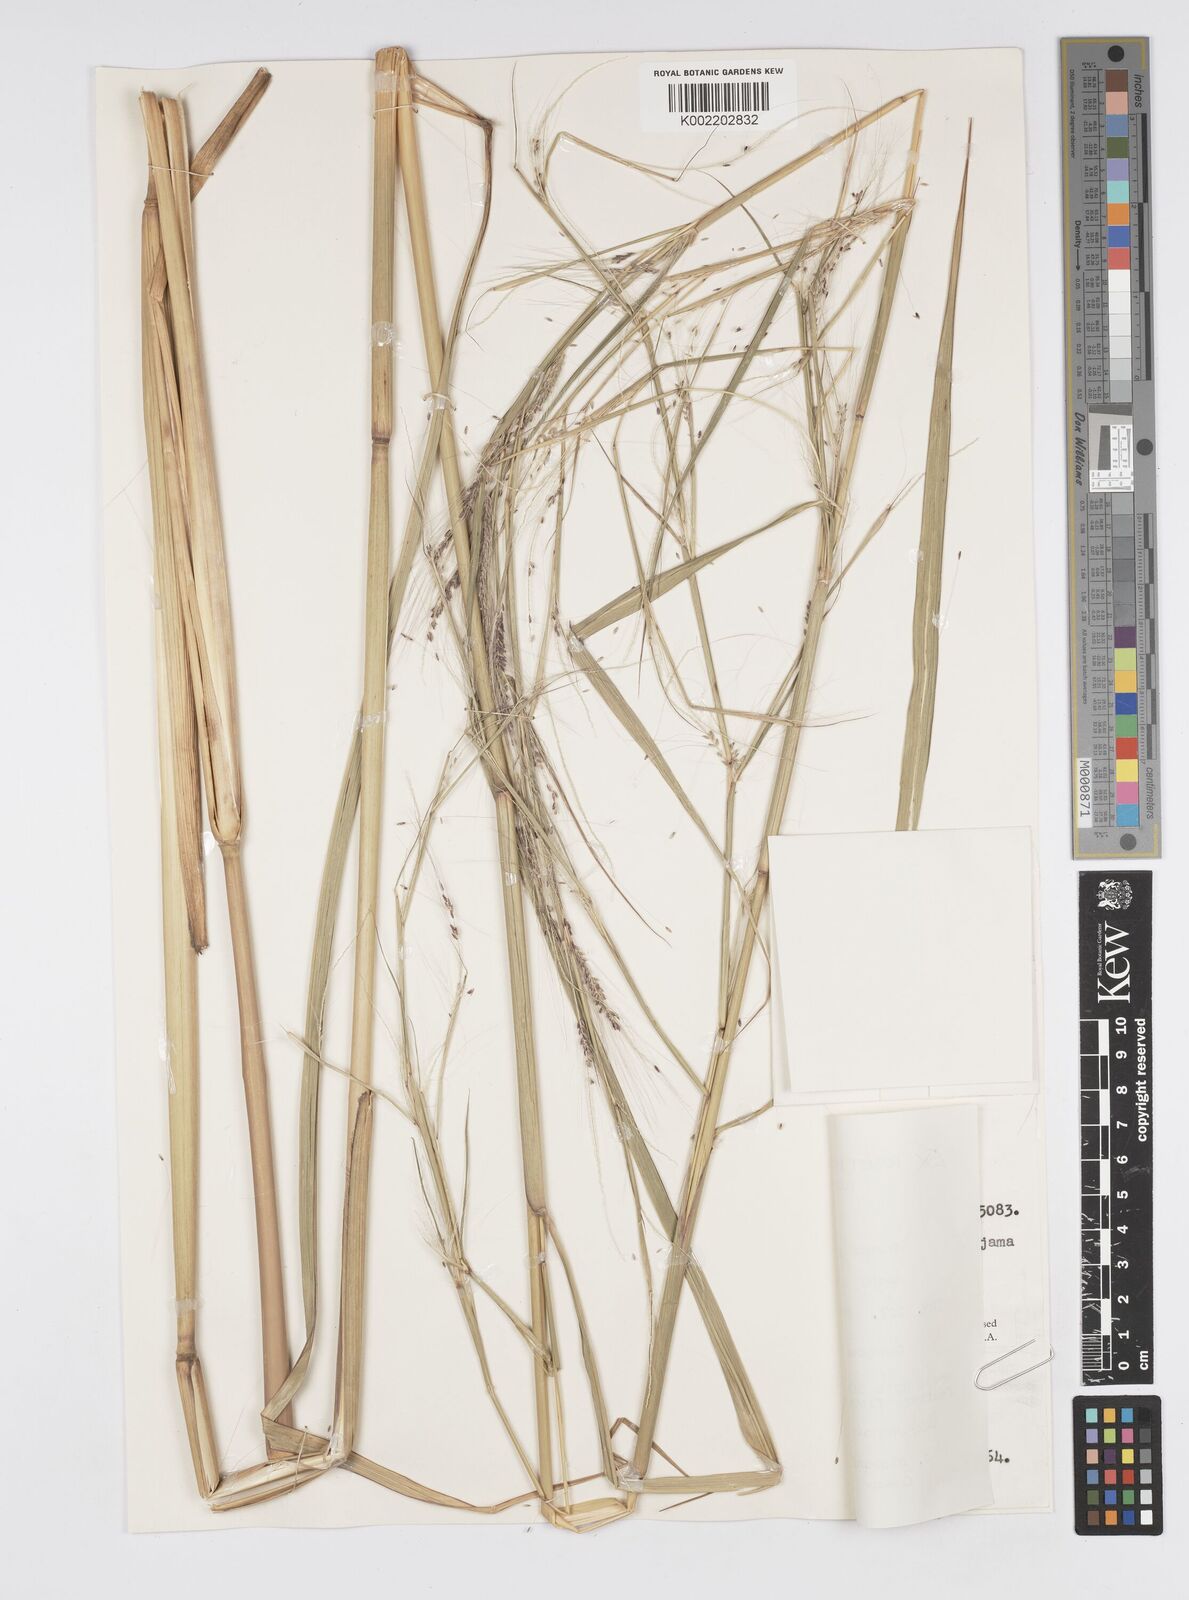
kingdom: Plantae
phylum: Tracheophyta
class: Liliopsida
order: Poales
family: Poaceae
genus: Cenchrus
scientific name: Cenchrus unisetus
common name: Natal grass
